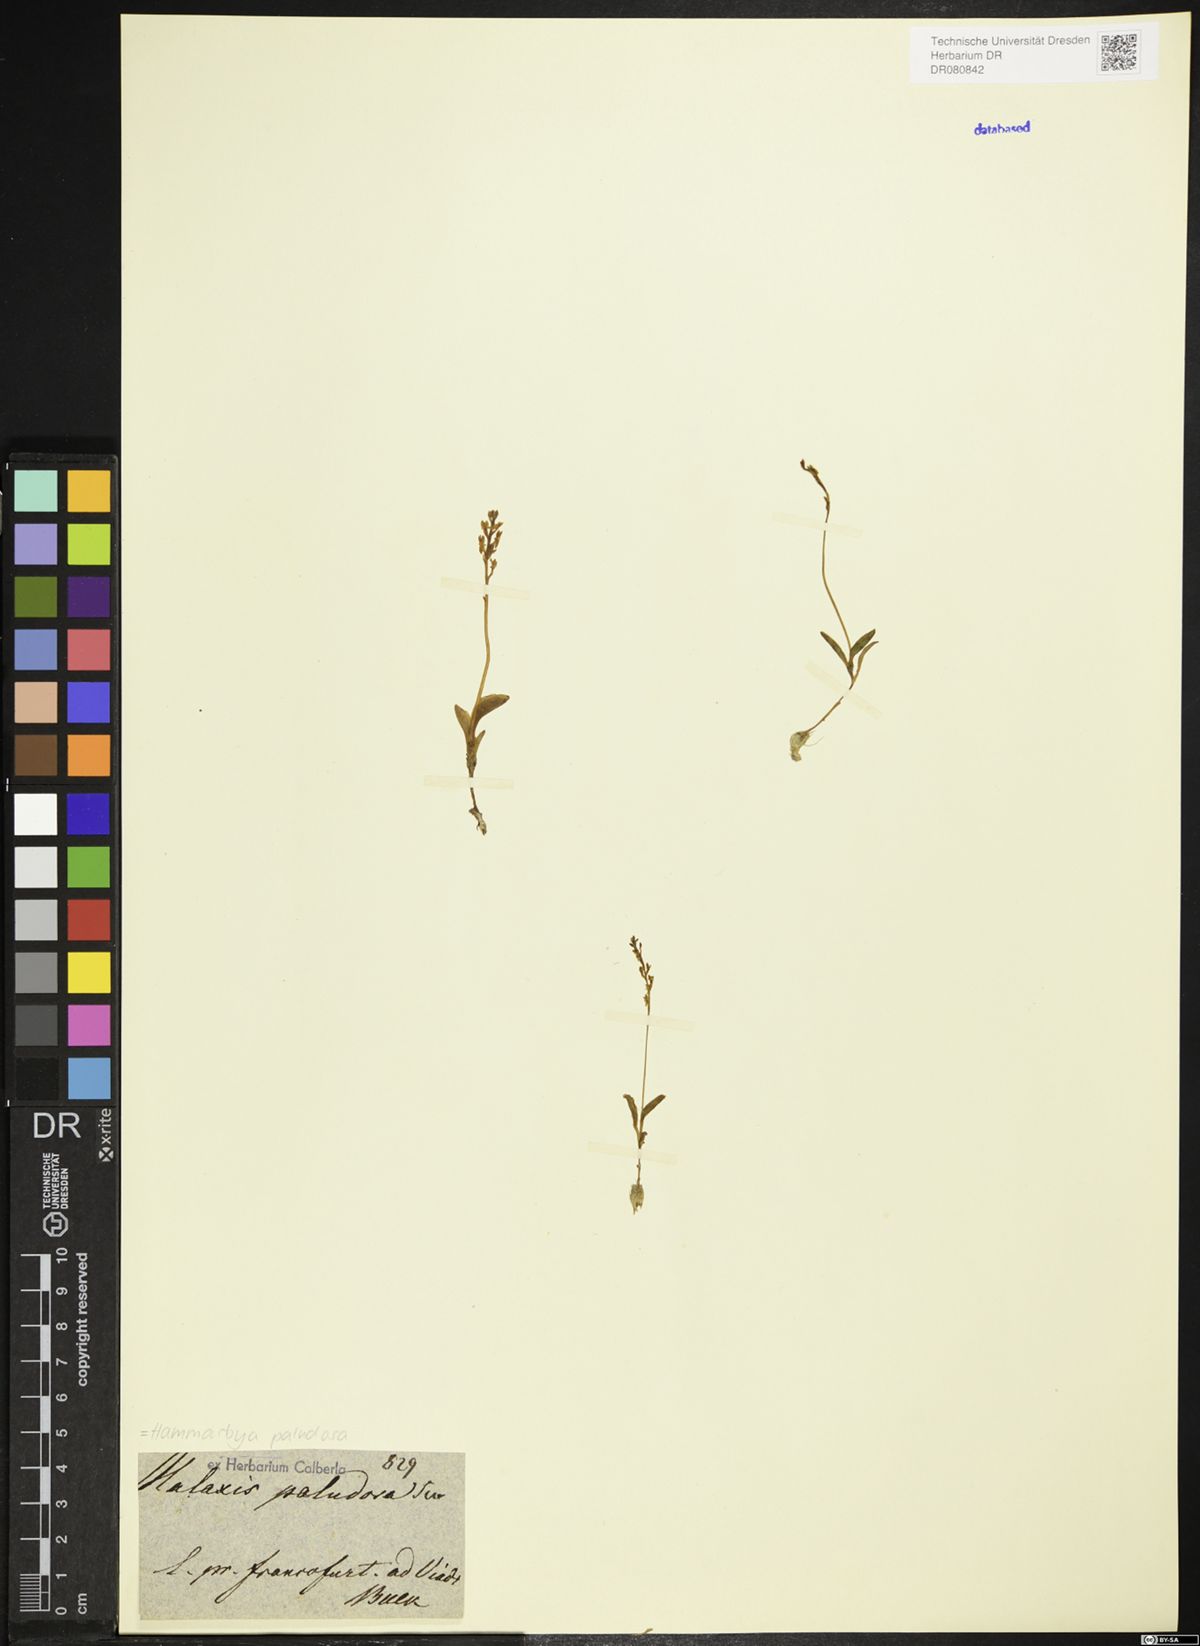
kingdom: Plantae
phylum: Tracheophyta
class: Liliopsida
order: Asparagales
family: Orchidaceae
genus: Hammarbya
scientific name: Hammarbya paludosa
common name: Bog orchid
